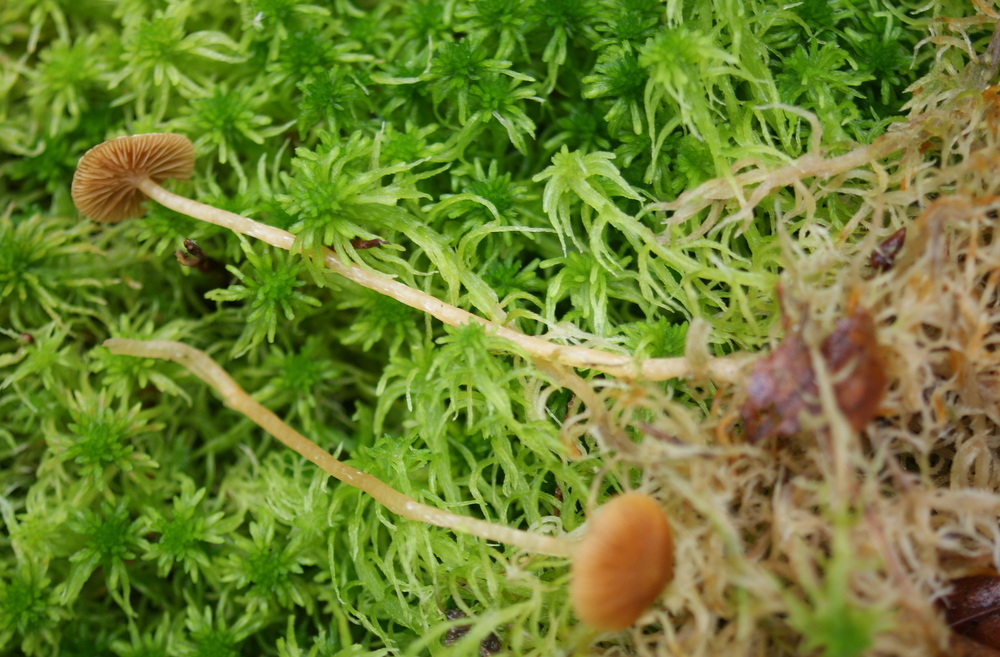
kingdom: Fungi
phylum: Basidiomycota
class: Agaricomycetes
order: Agaricales
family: Hymenogastraceae
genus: Galerina
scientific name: Galerina paludosa
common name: mose-hjelmhat
